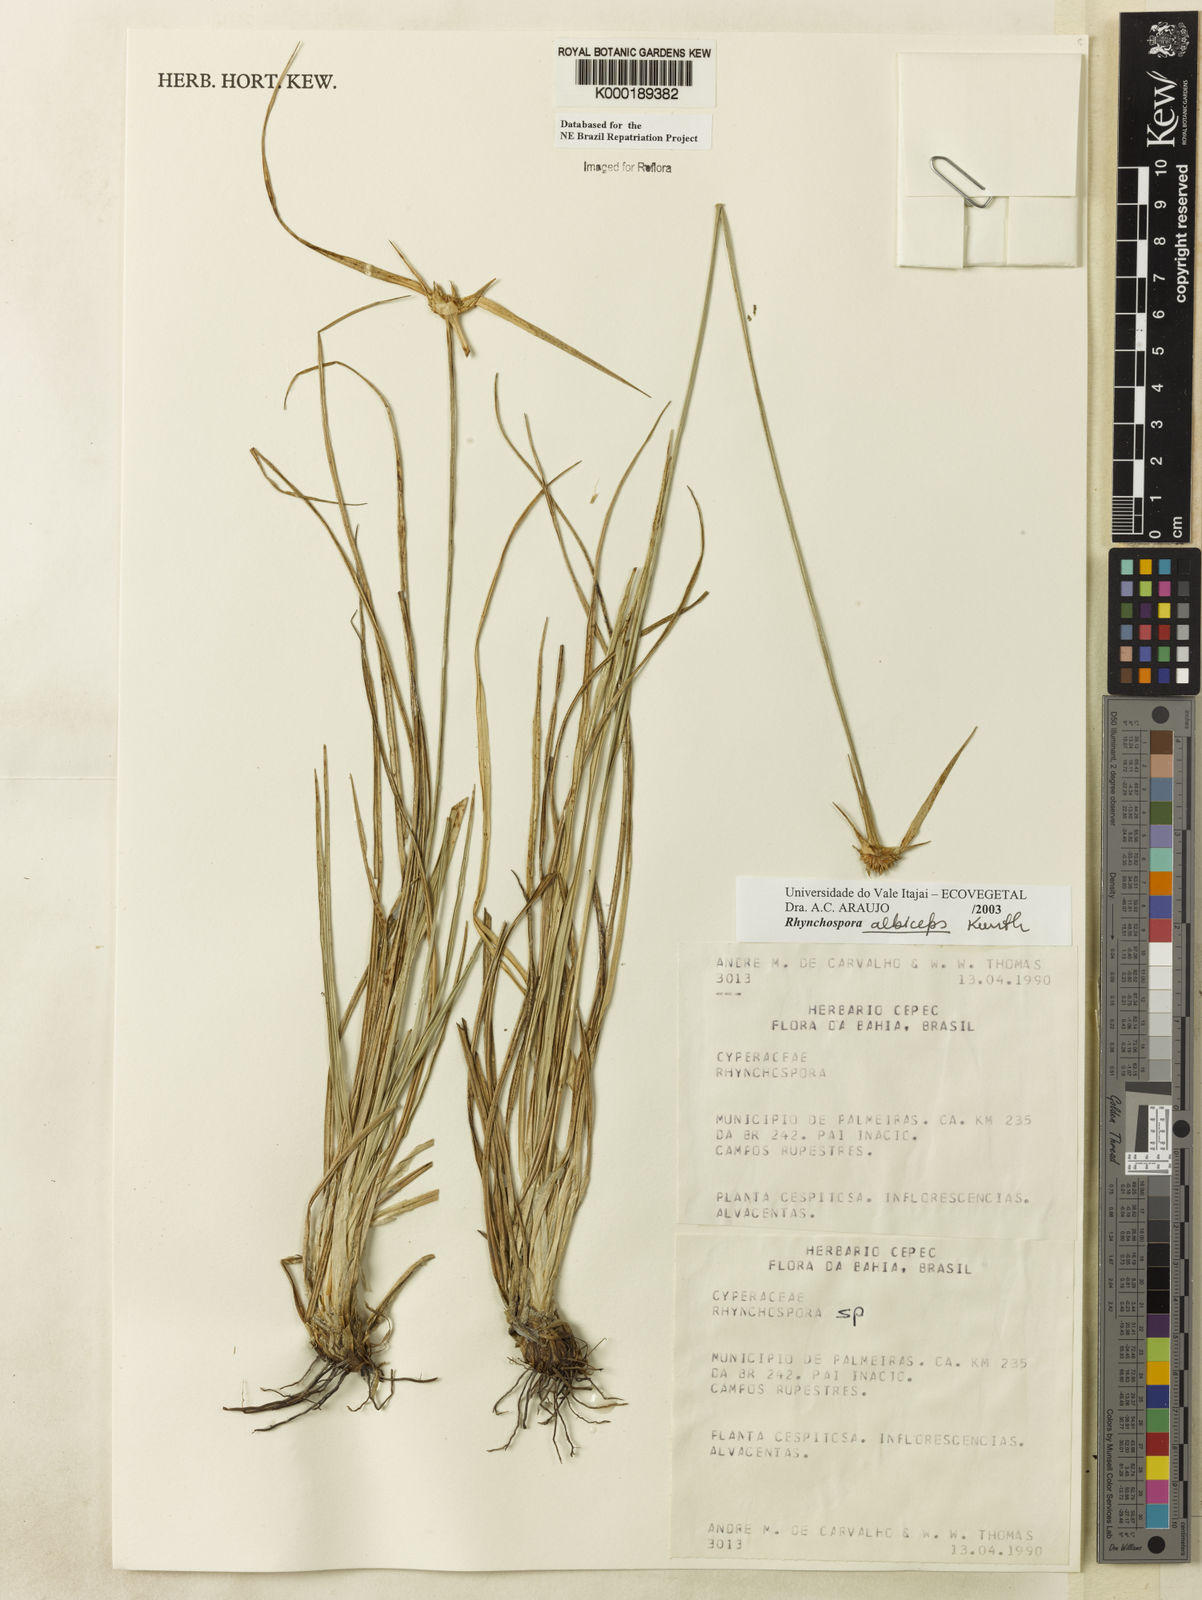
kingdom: Plantae
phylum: Tracheophyta
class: Liliopsida
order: Poales
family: Cyperaceae
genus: Rhynchospora
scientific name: Rhynchospora albiceps
